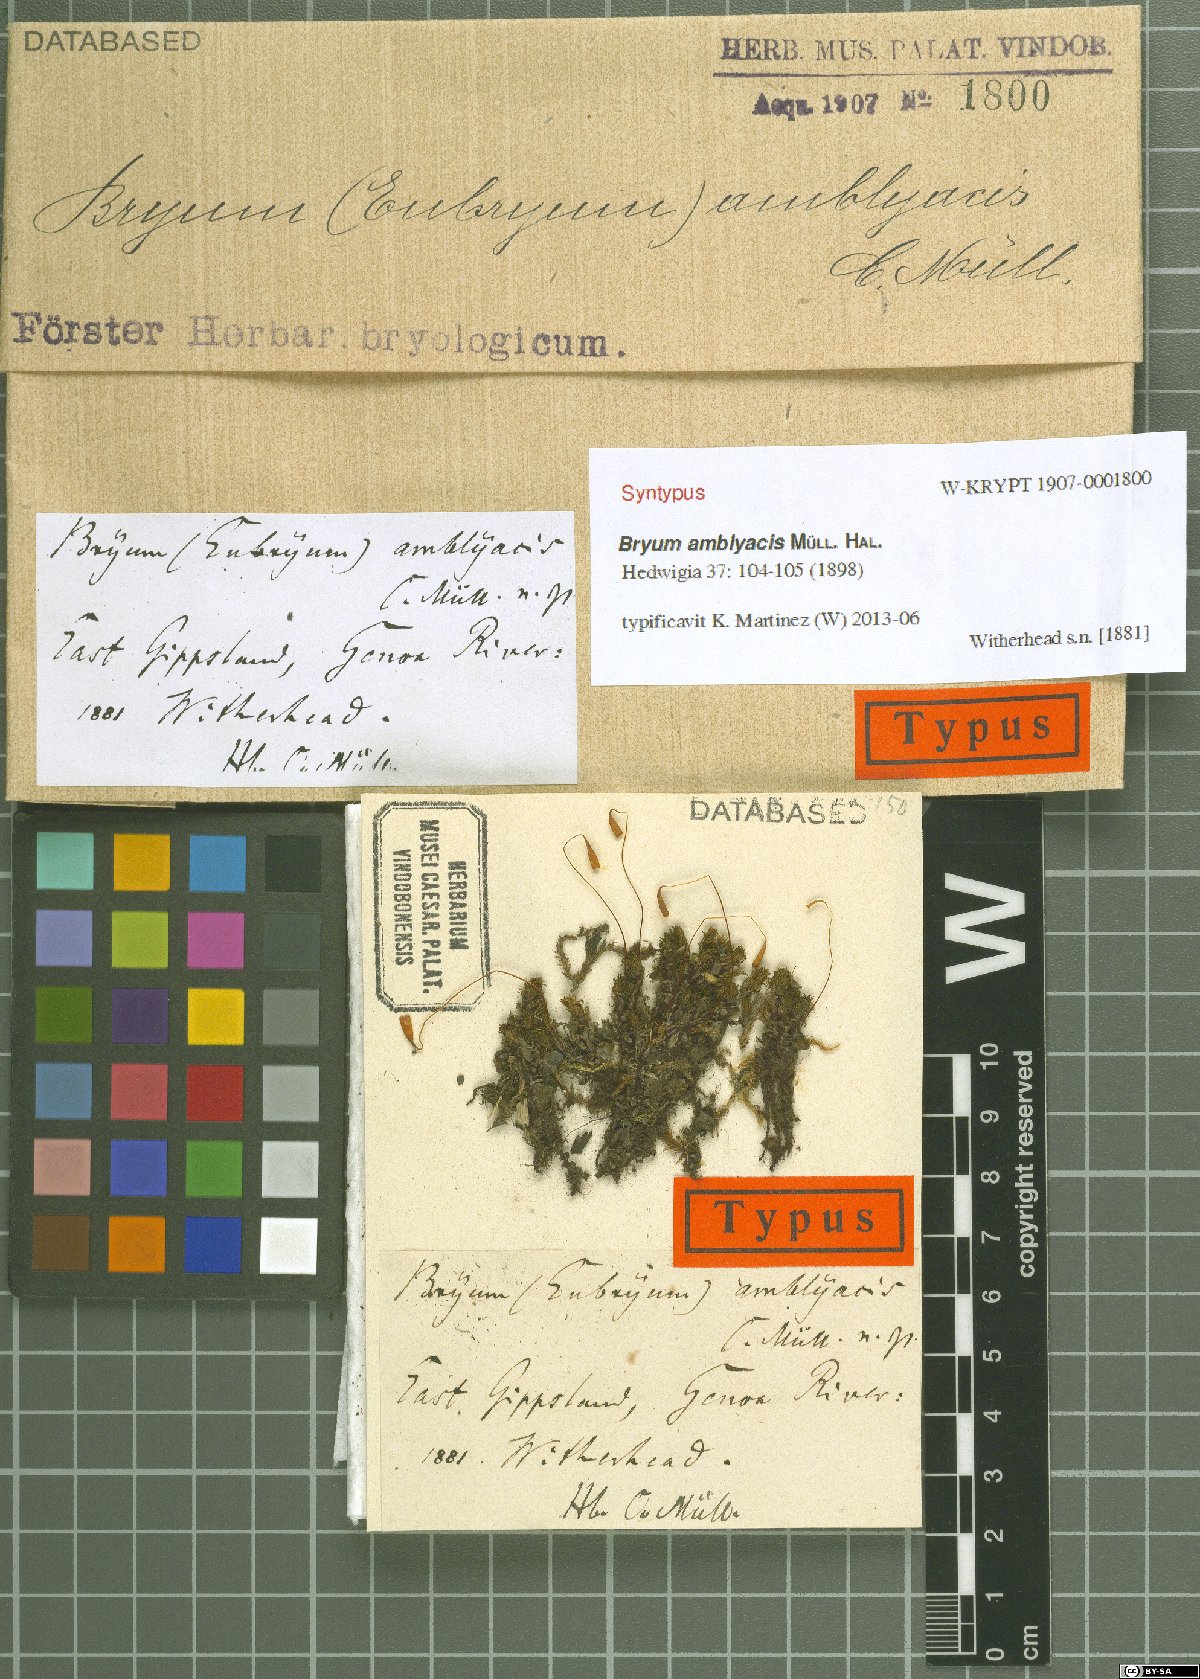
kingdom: Plantae
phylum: Bryophyta
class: Bryopsida
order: Bryales
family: Bryaceae
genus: Bryum
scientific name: Bryum amblyacis
